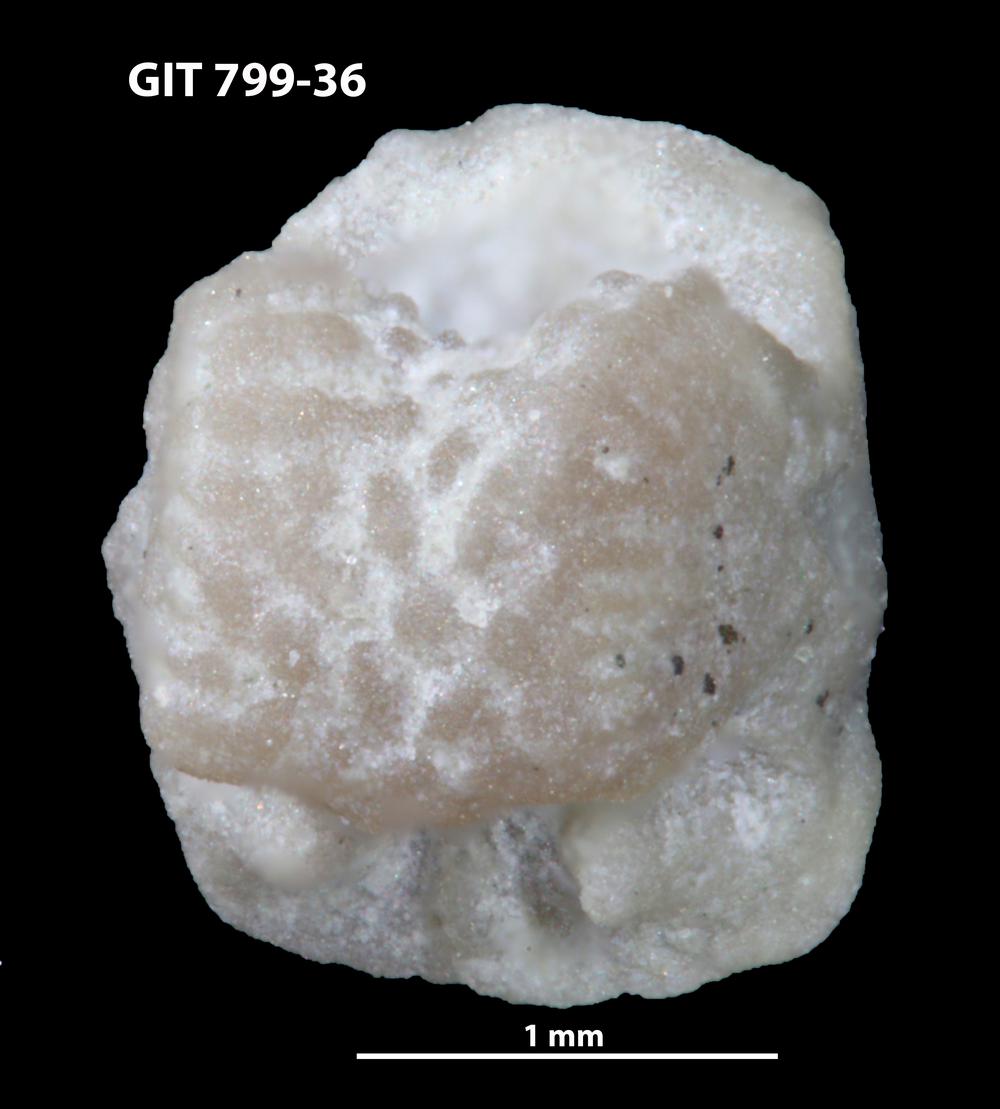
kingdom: Animalia
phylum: Echinodermata
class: Crinoidea
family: Cyclocystoididae
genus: Polytryphocycloides
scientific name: Polytryphocycloides Cyclocystoides lindstroemi
